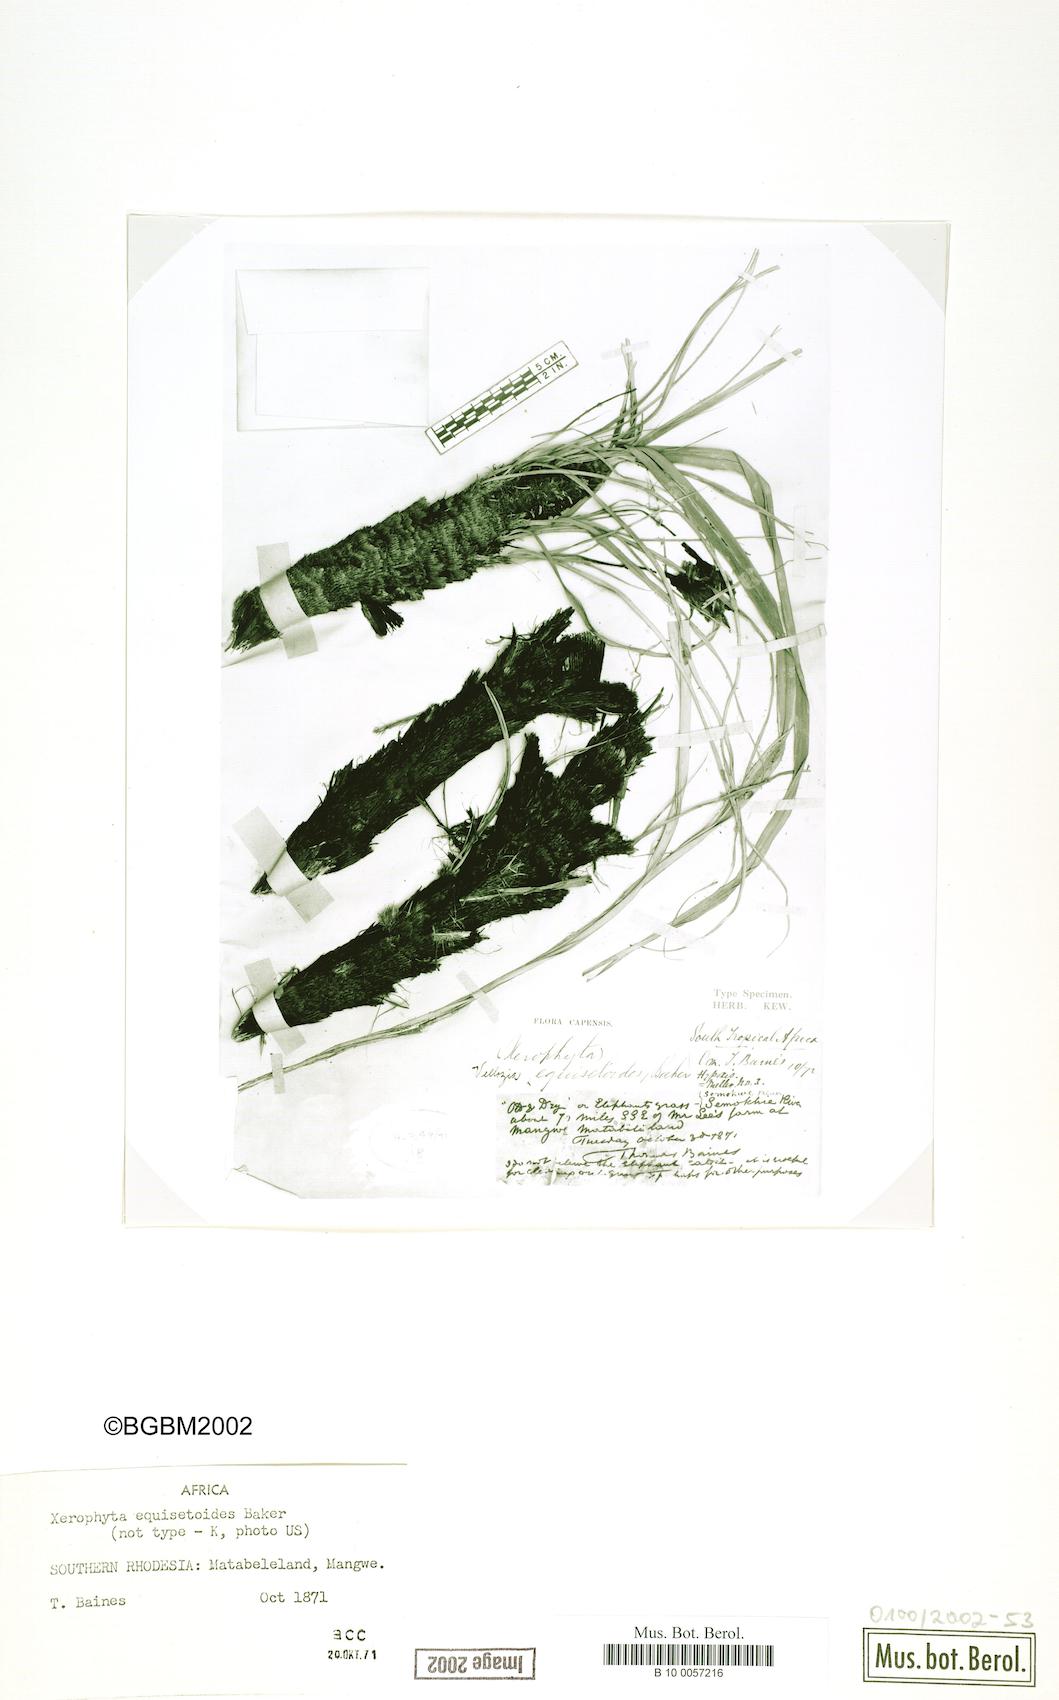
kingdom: Plantae
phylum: Tracheophyta
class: Liliopsida
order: Pandanales
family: Velloziaceae
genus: Xerophyta
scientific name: Xerophyta equisetoides
